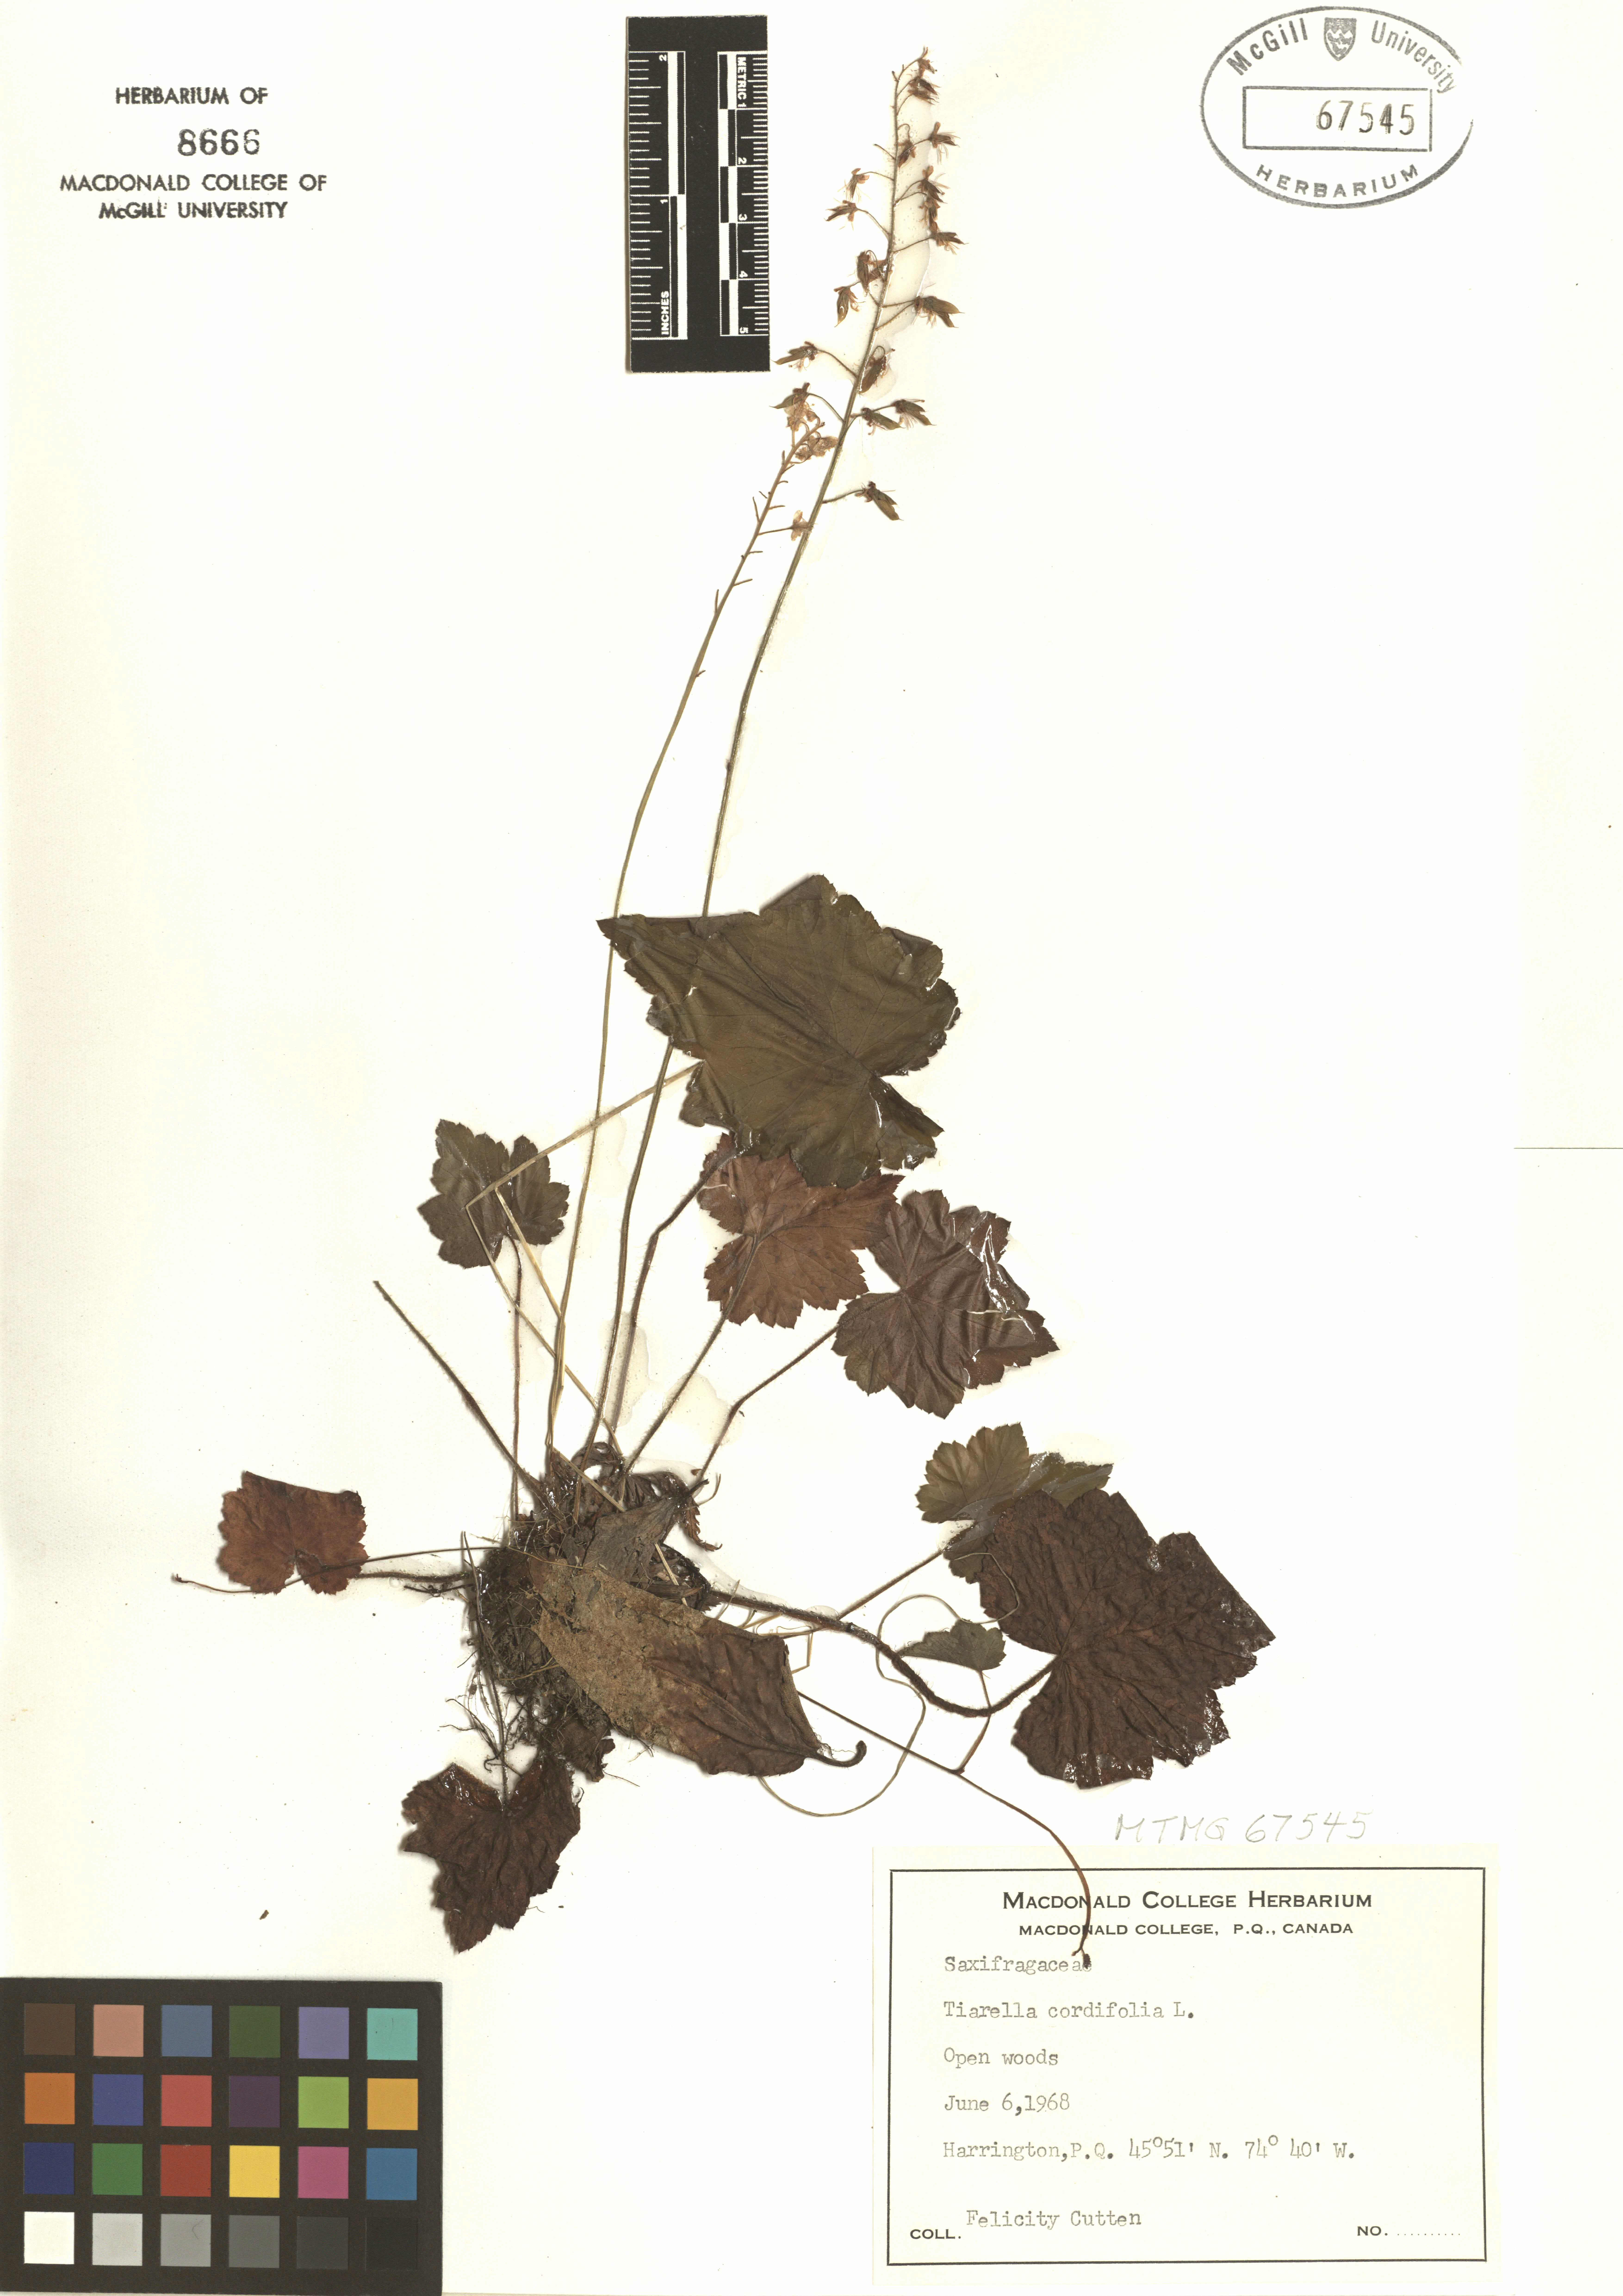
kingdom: Plantae
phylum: Tracheophyta
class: Magnoliopsida
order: Saxifragales
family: Saxifragaceae
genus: Tiarella
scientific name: Tiarella cordifolia
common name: Foamflower
